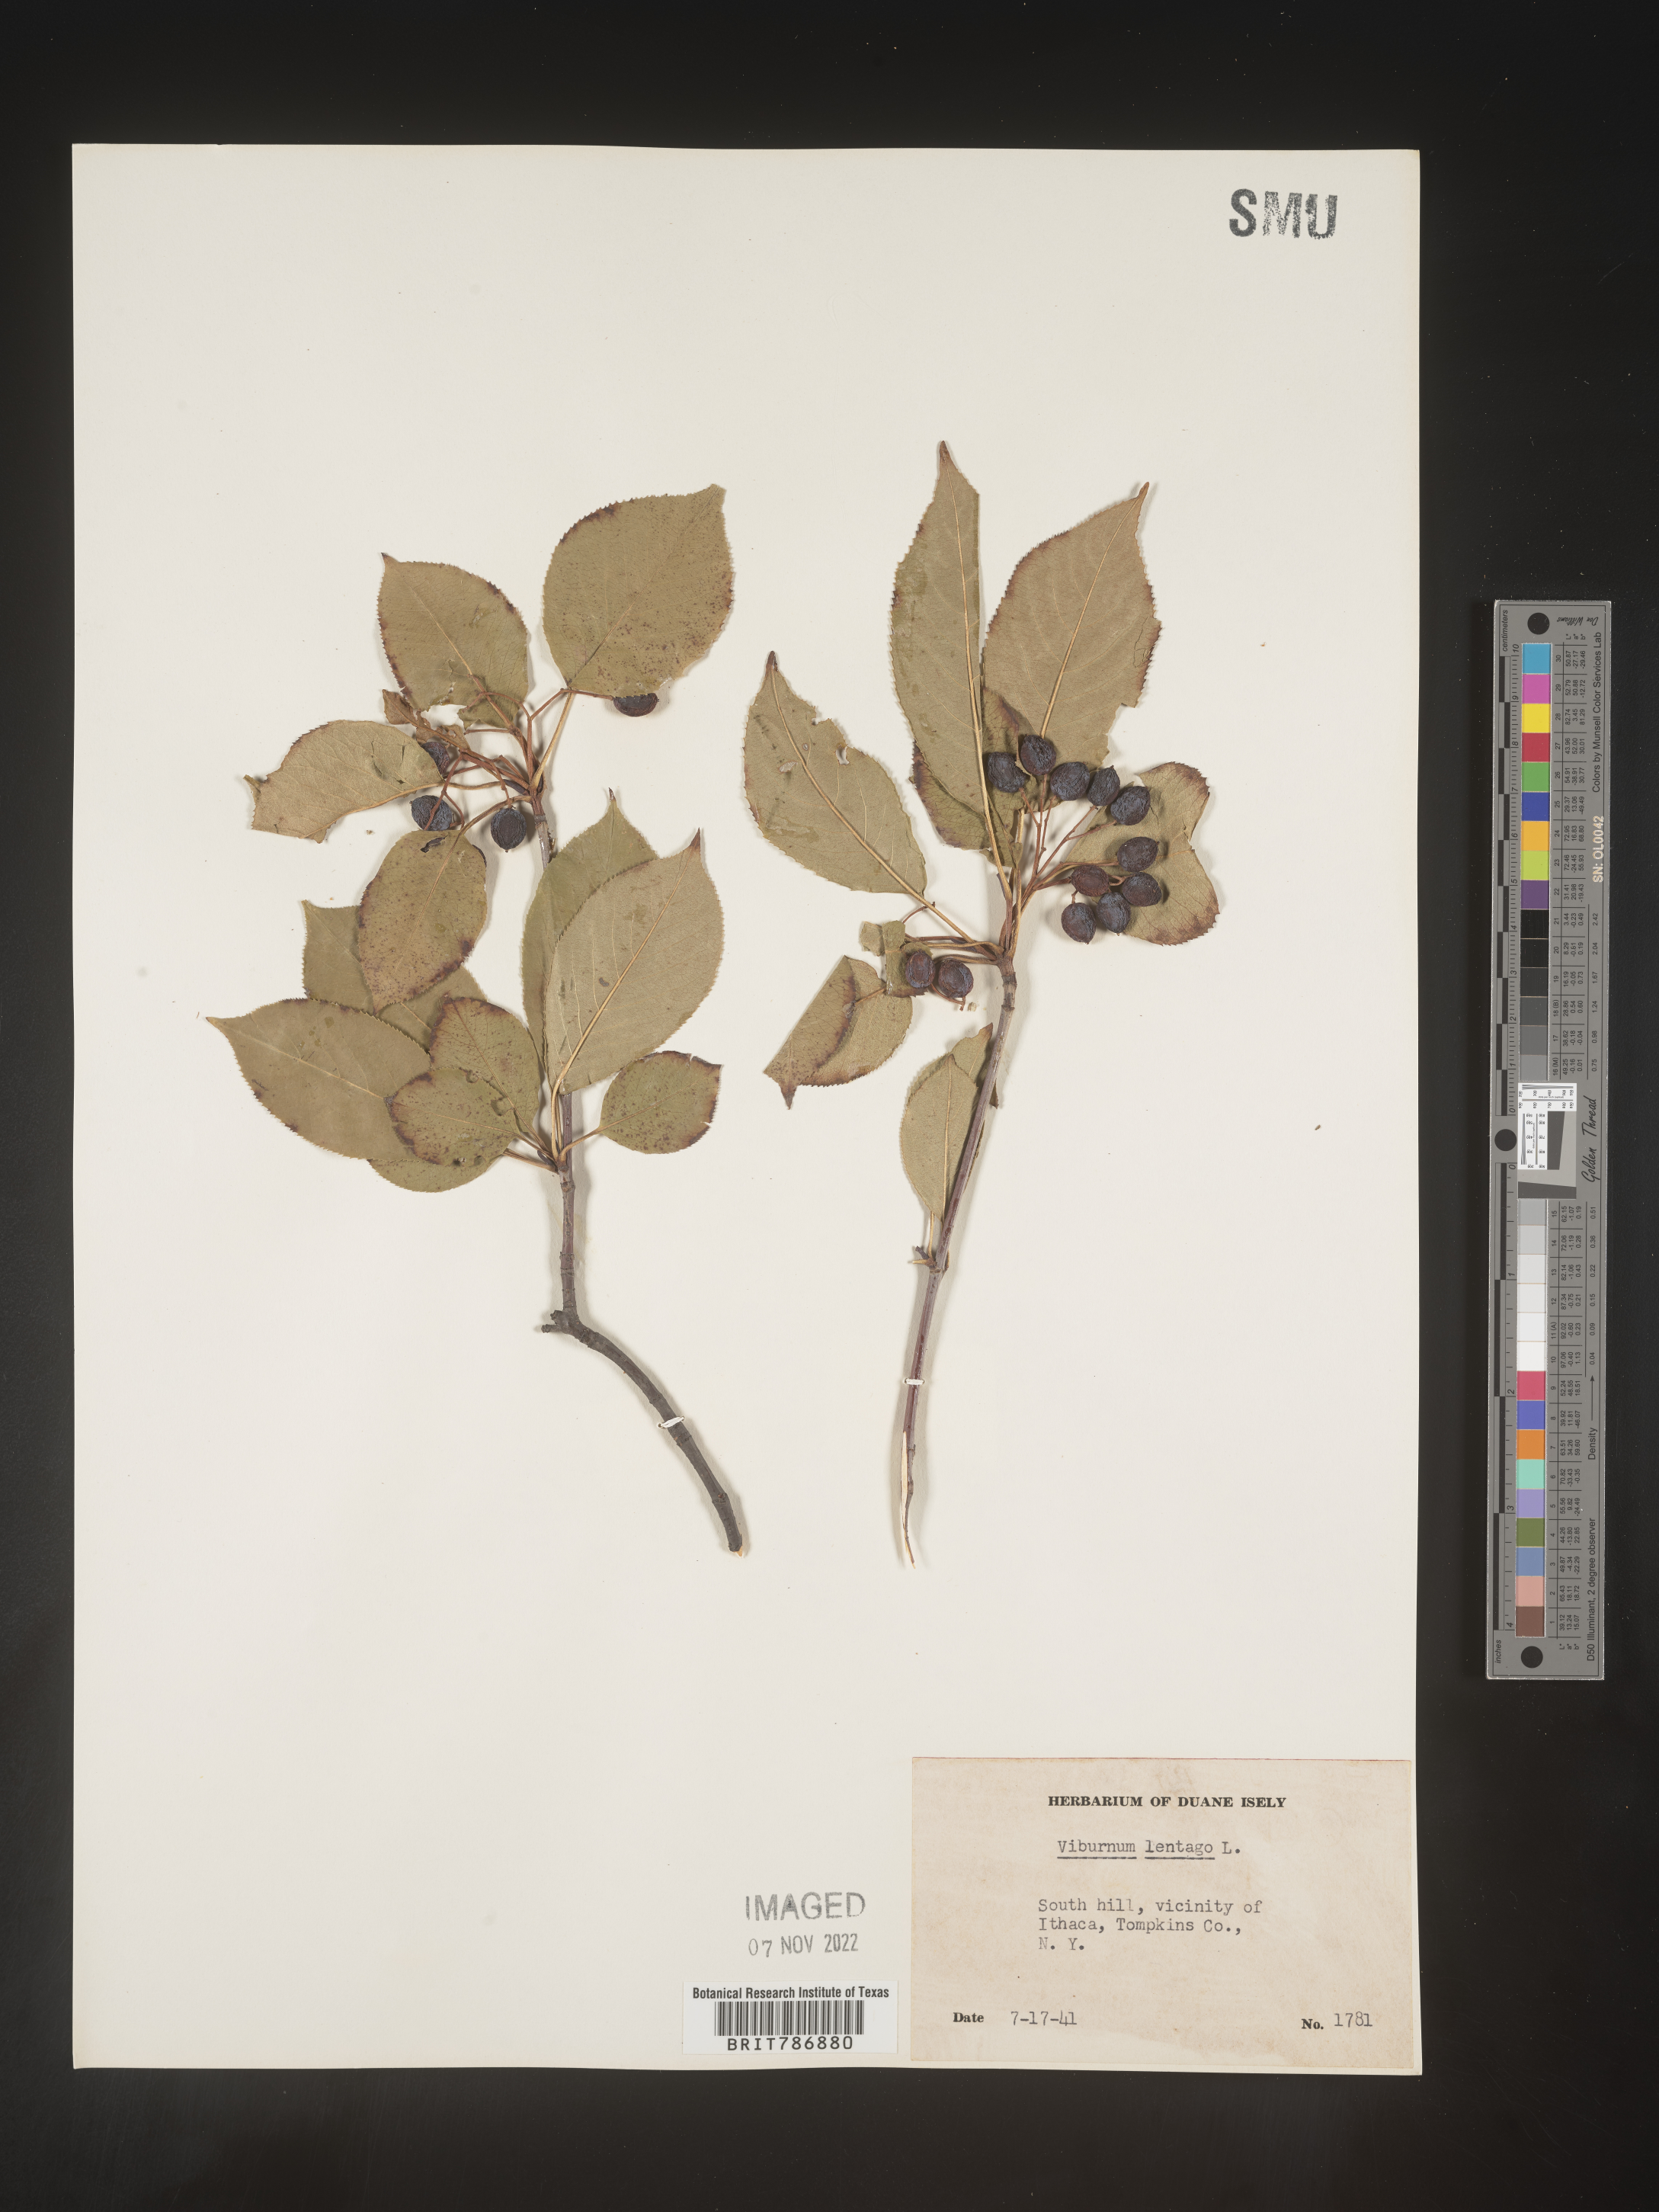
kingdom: Plantae
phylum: Tracheophyta
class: Magnoliopsida
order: Dipsacales
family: Viburnaceae
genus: Viburnum
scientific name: Viburnum lentago
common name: Black haw
